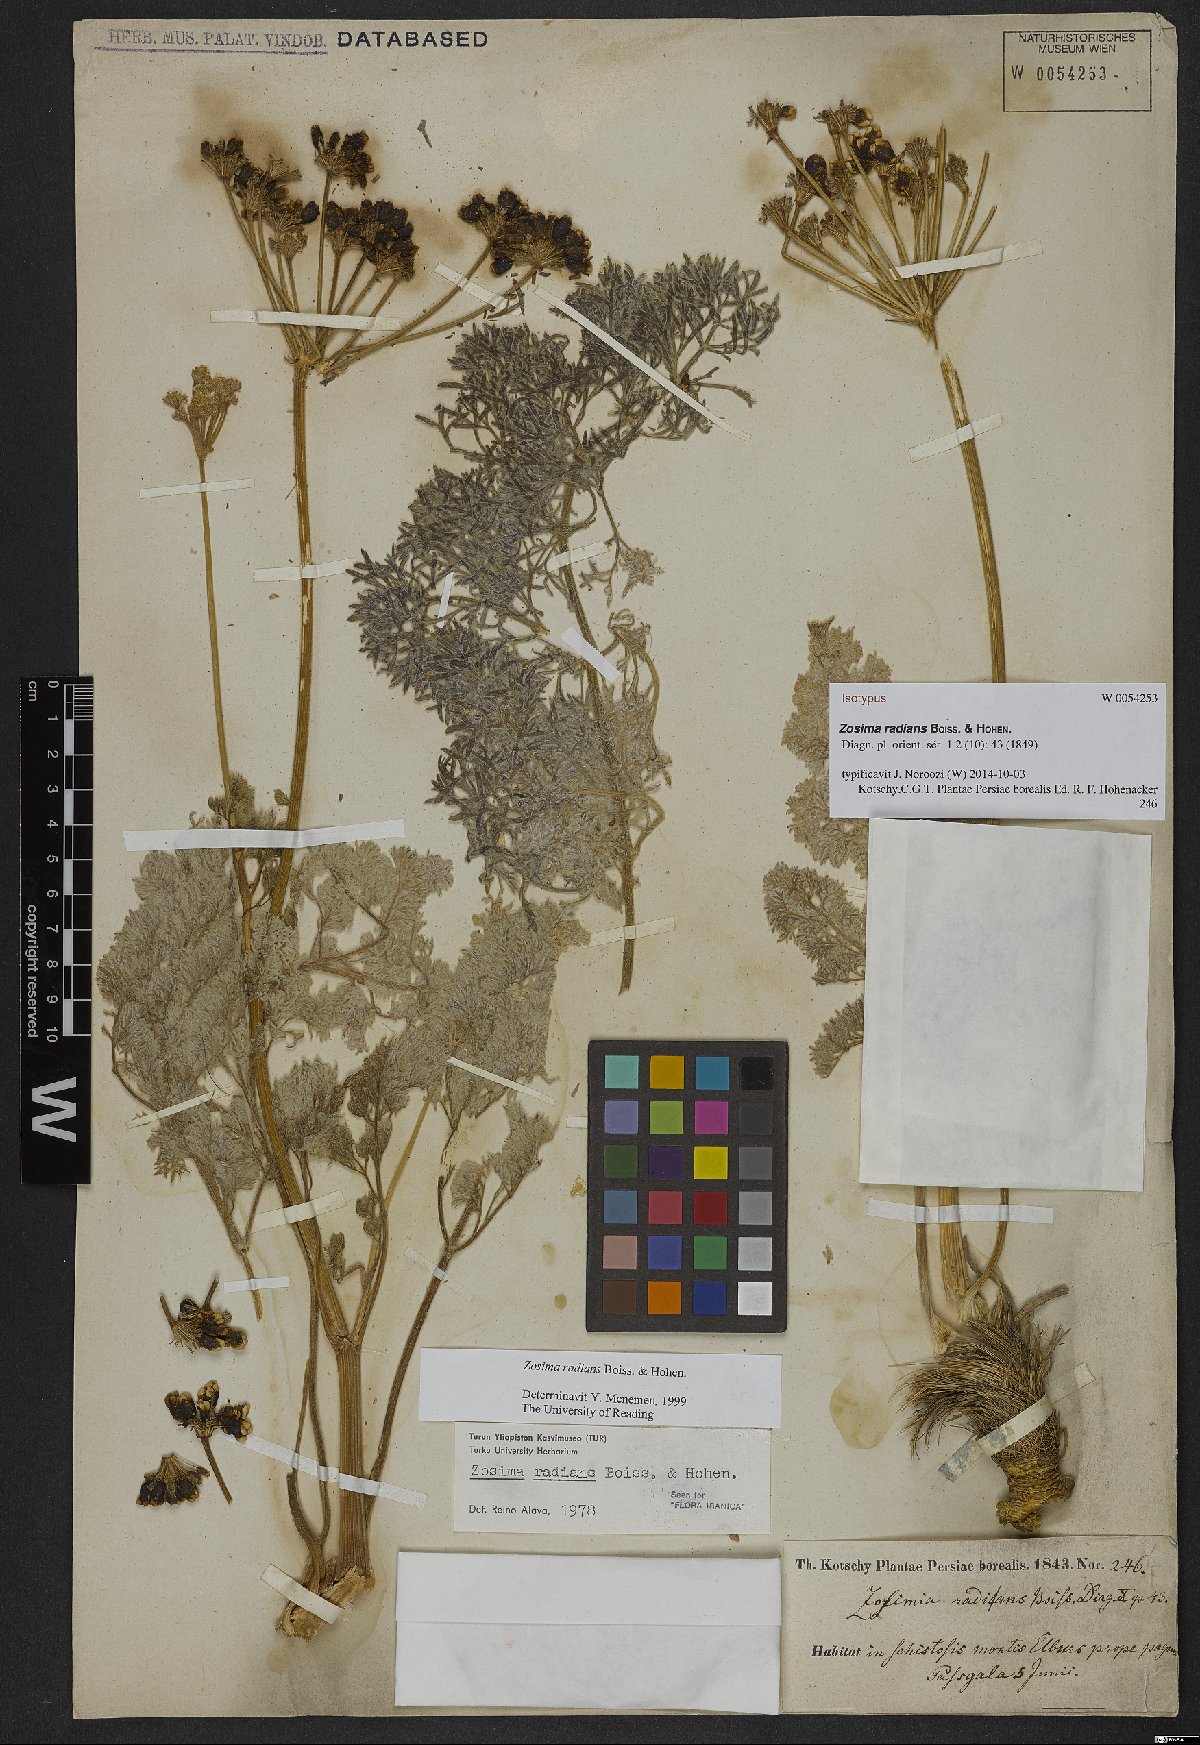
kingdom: Plantae
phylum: Tracheophyta
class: Magnoliopsida
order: Apiales
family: Apiaceae
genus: Zosima
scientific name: Zosima radians
